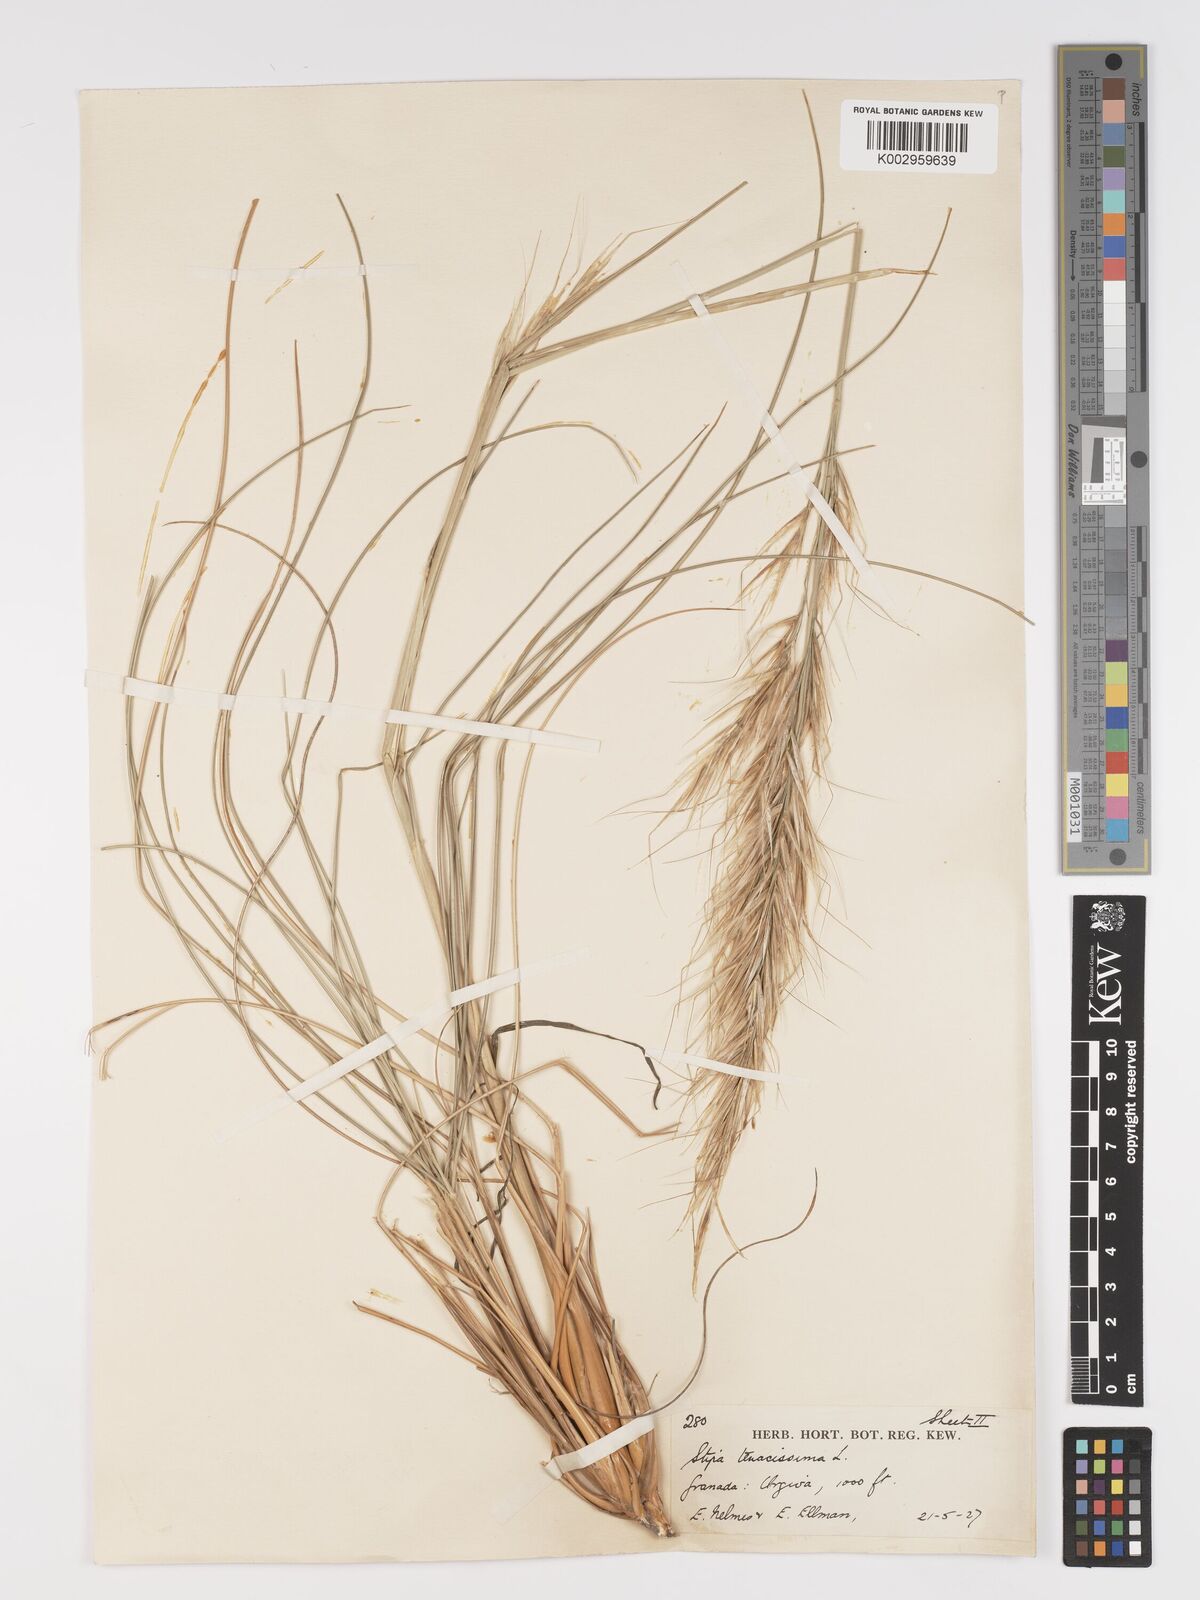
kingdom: Plantae
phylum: Tracheophyta
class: Liliopsida
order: Poales
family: Poaceae
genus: Macrochloa
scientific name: Macrochloa tenacissima
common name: Alfa grass
